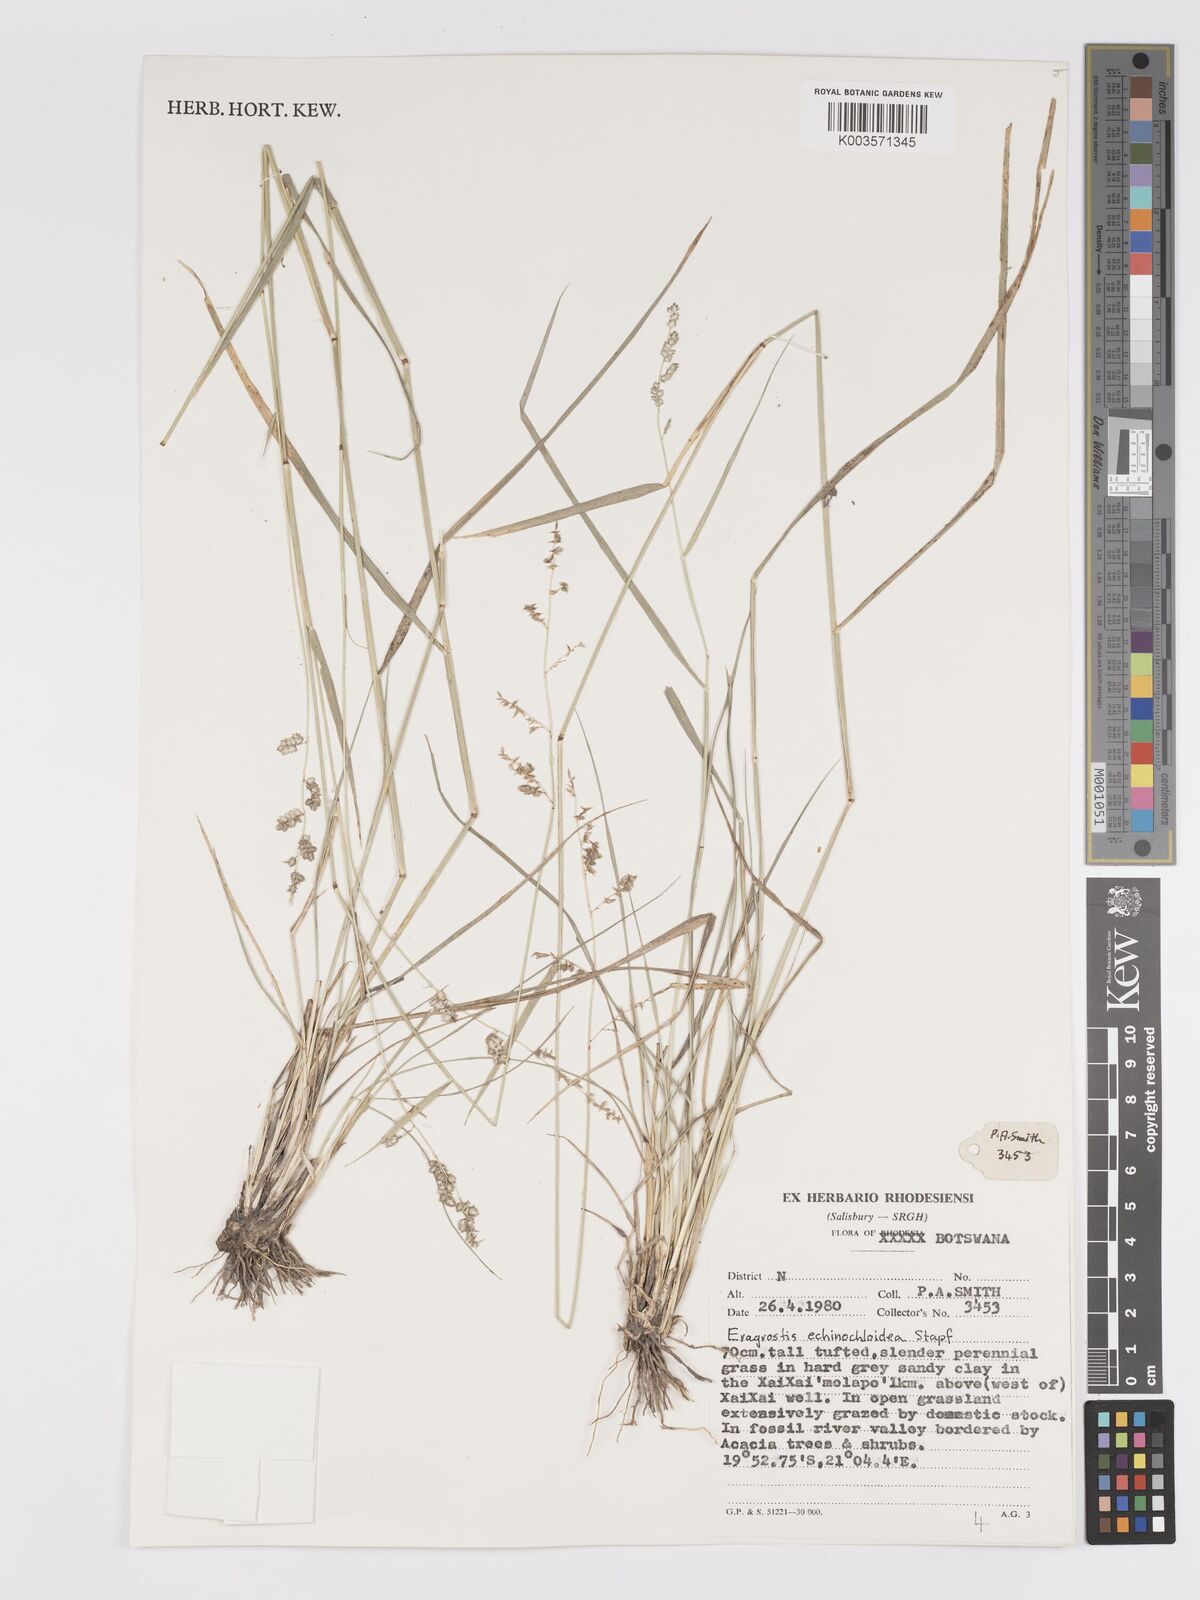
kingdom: Plantae
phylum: Tracheophyta
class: Liliopsida
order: Poales
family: Poaceae
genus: Eragrostis
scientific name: Eragrostis echinochloidea
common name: African lovegrass
